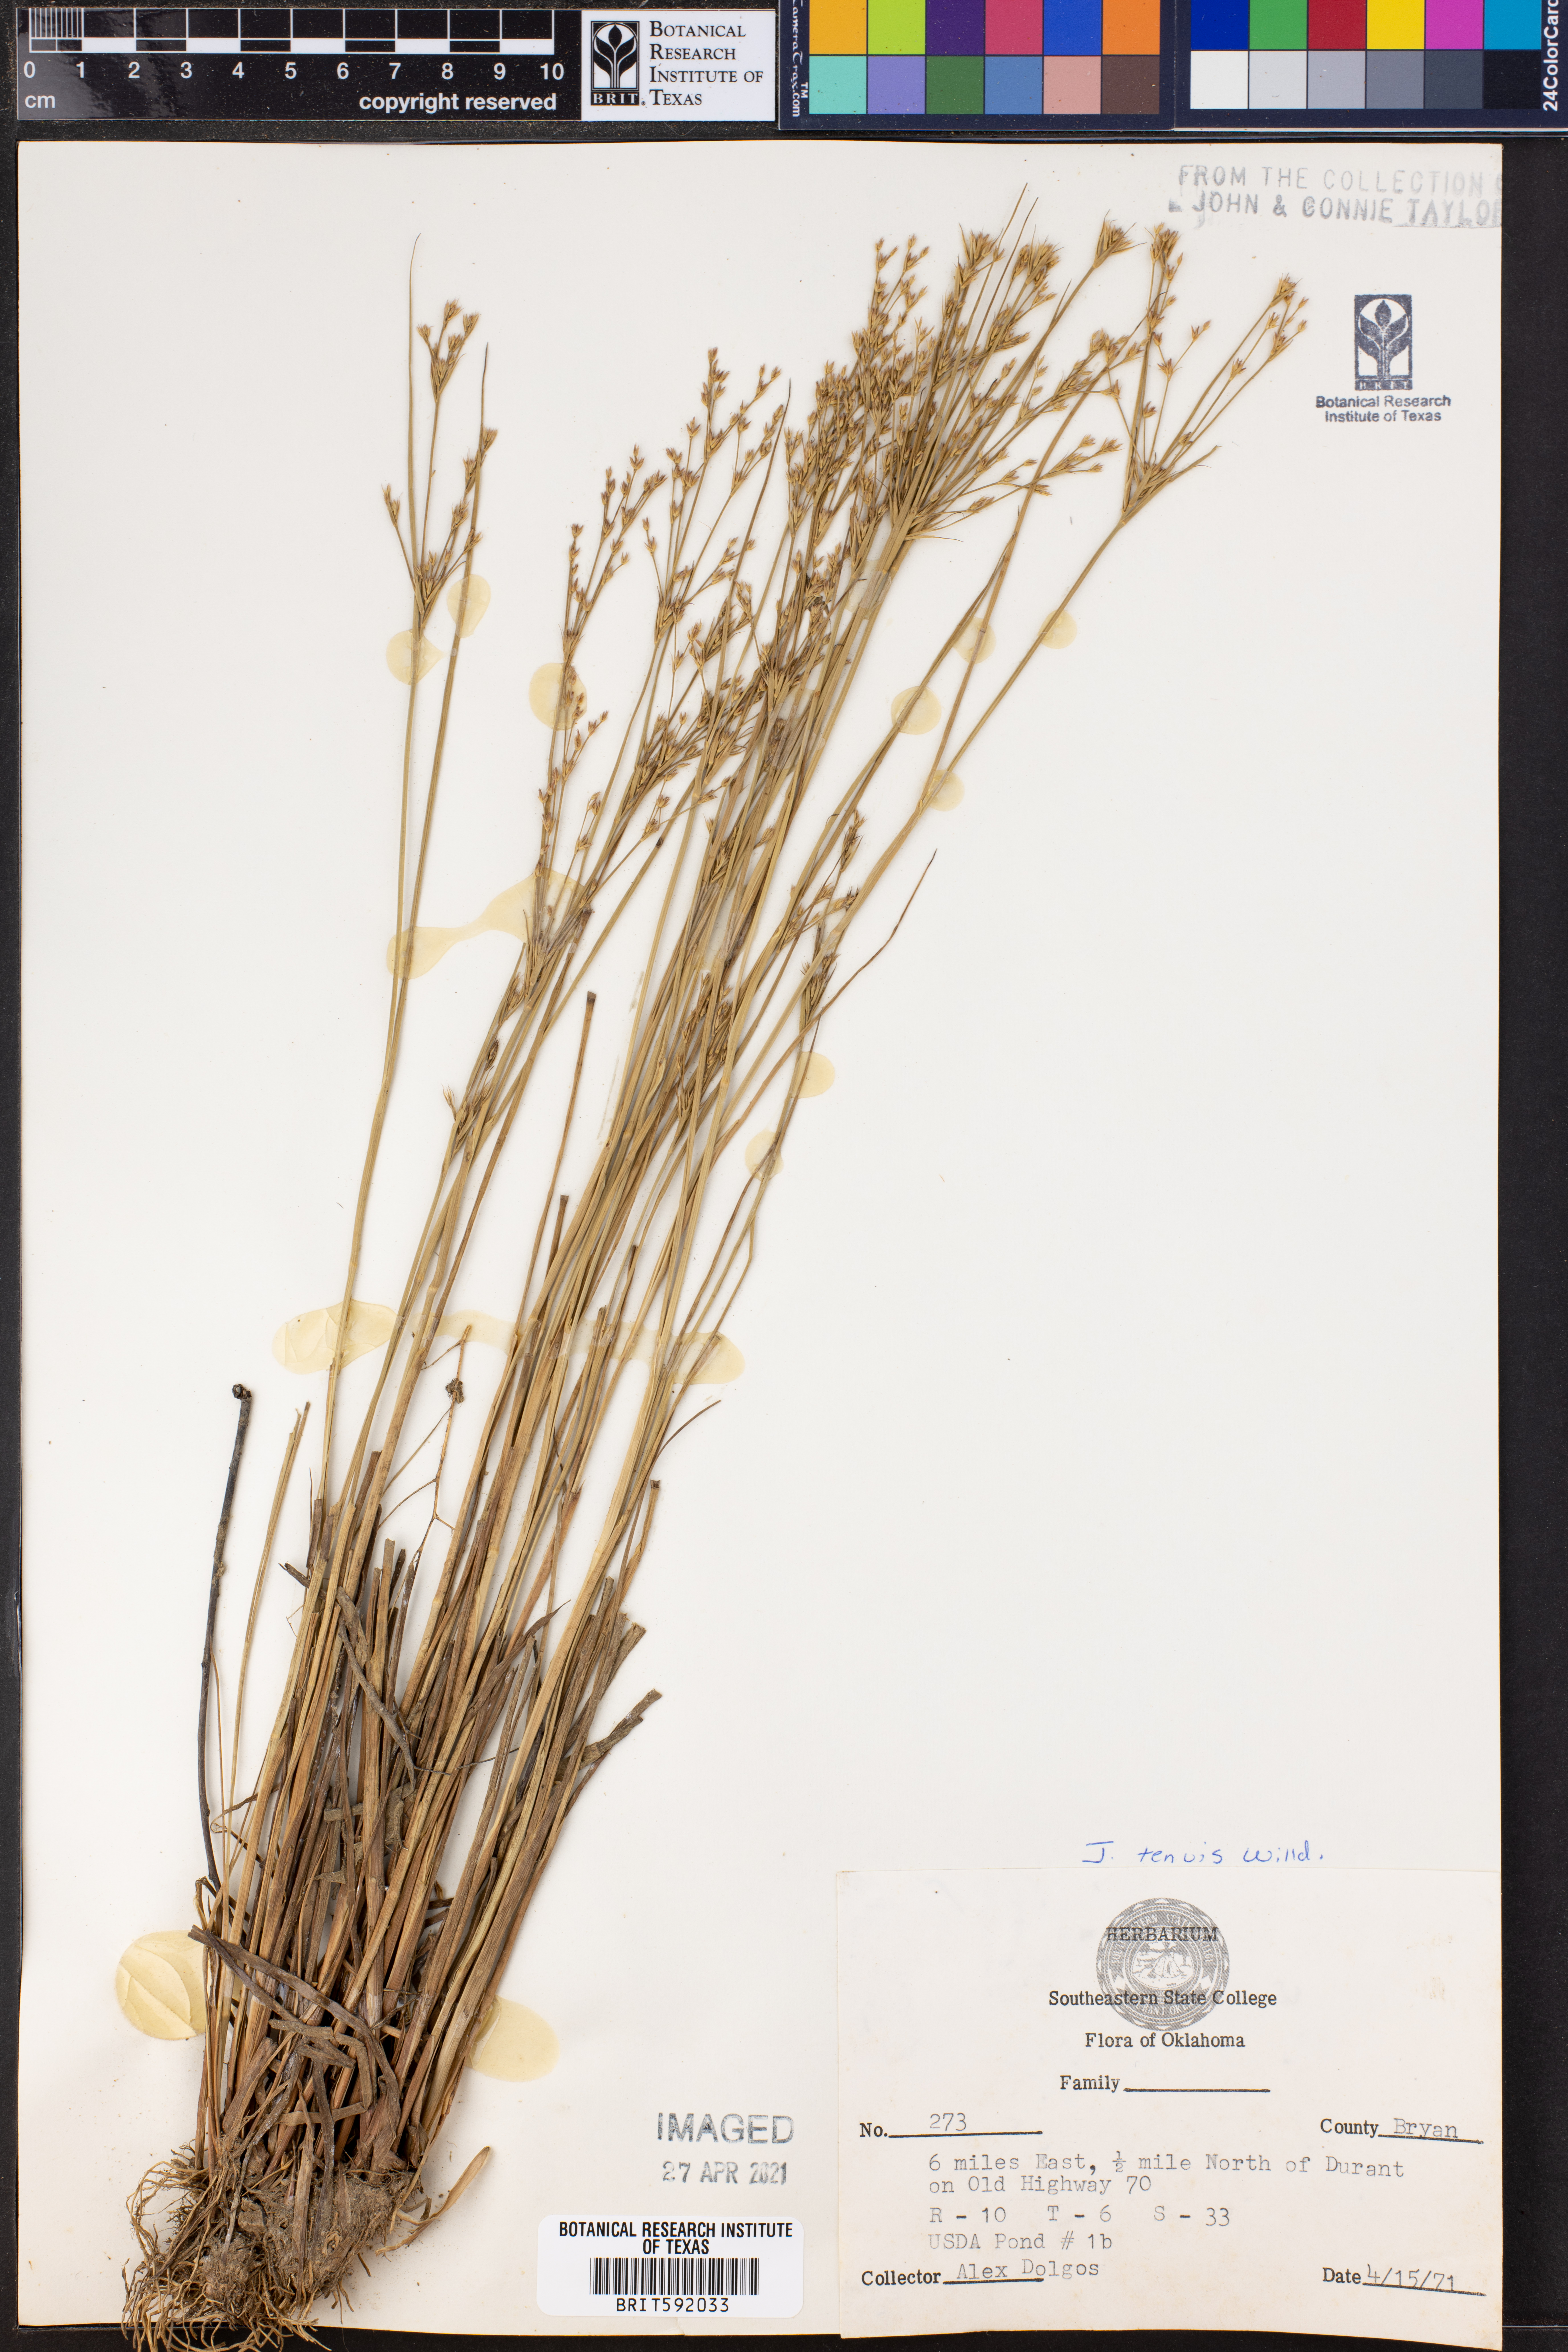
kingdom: Plantae
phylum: Tracheophyta
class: Liliopsida
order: Poales
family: Juncaceae
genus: Juncus
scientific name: Juncus tenuis
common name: Slender rush
